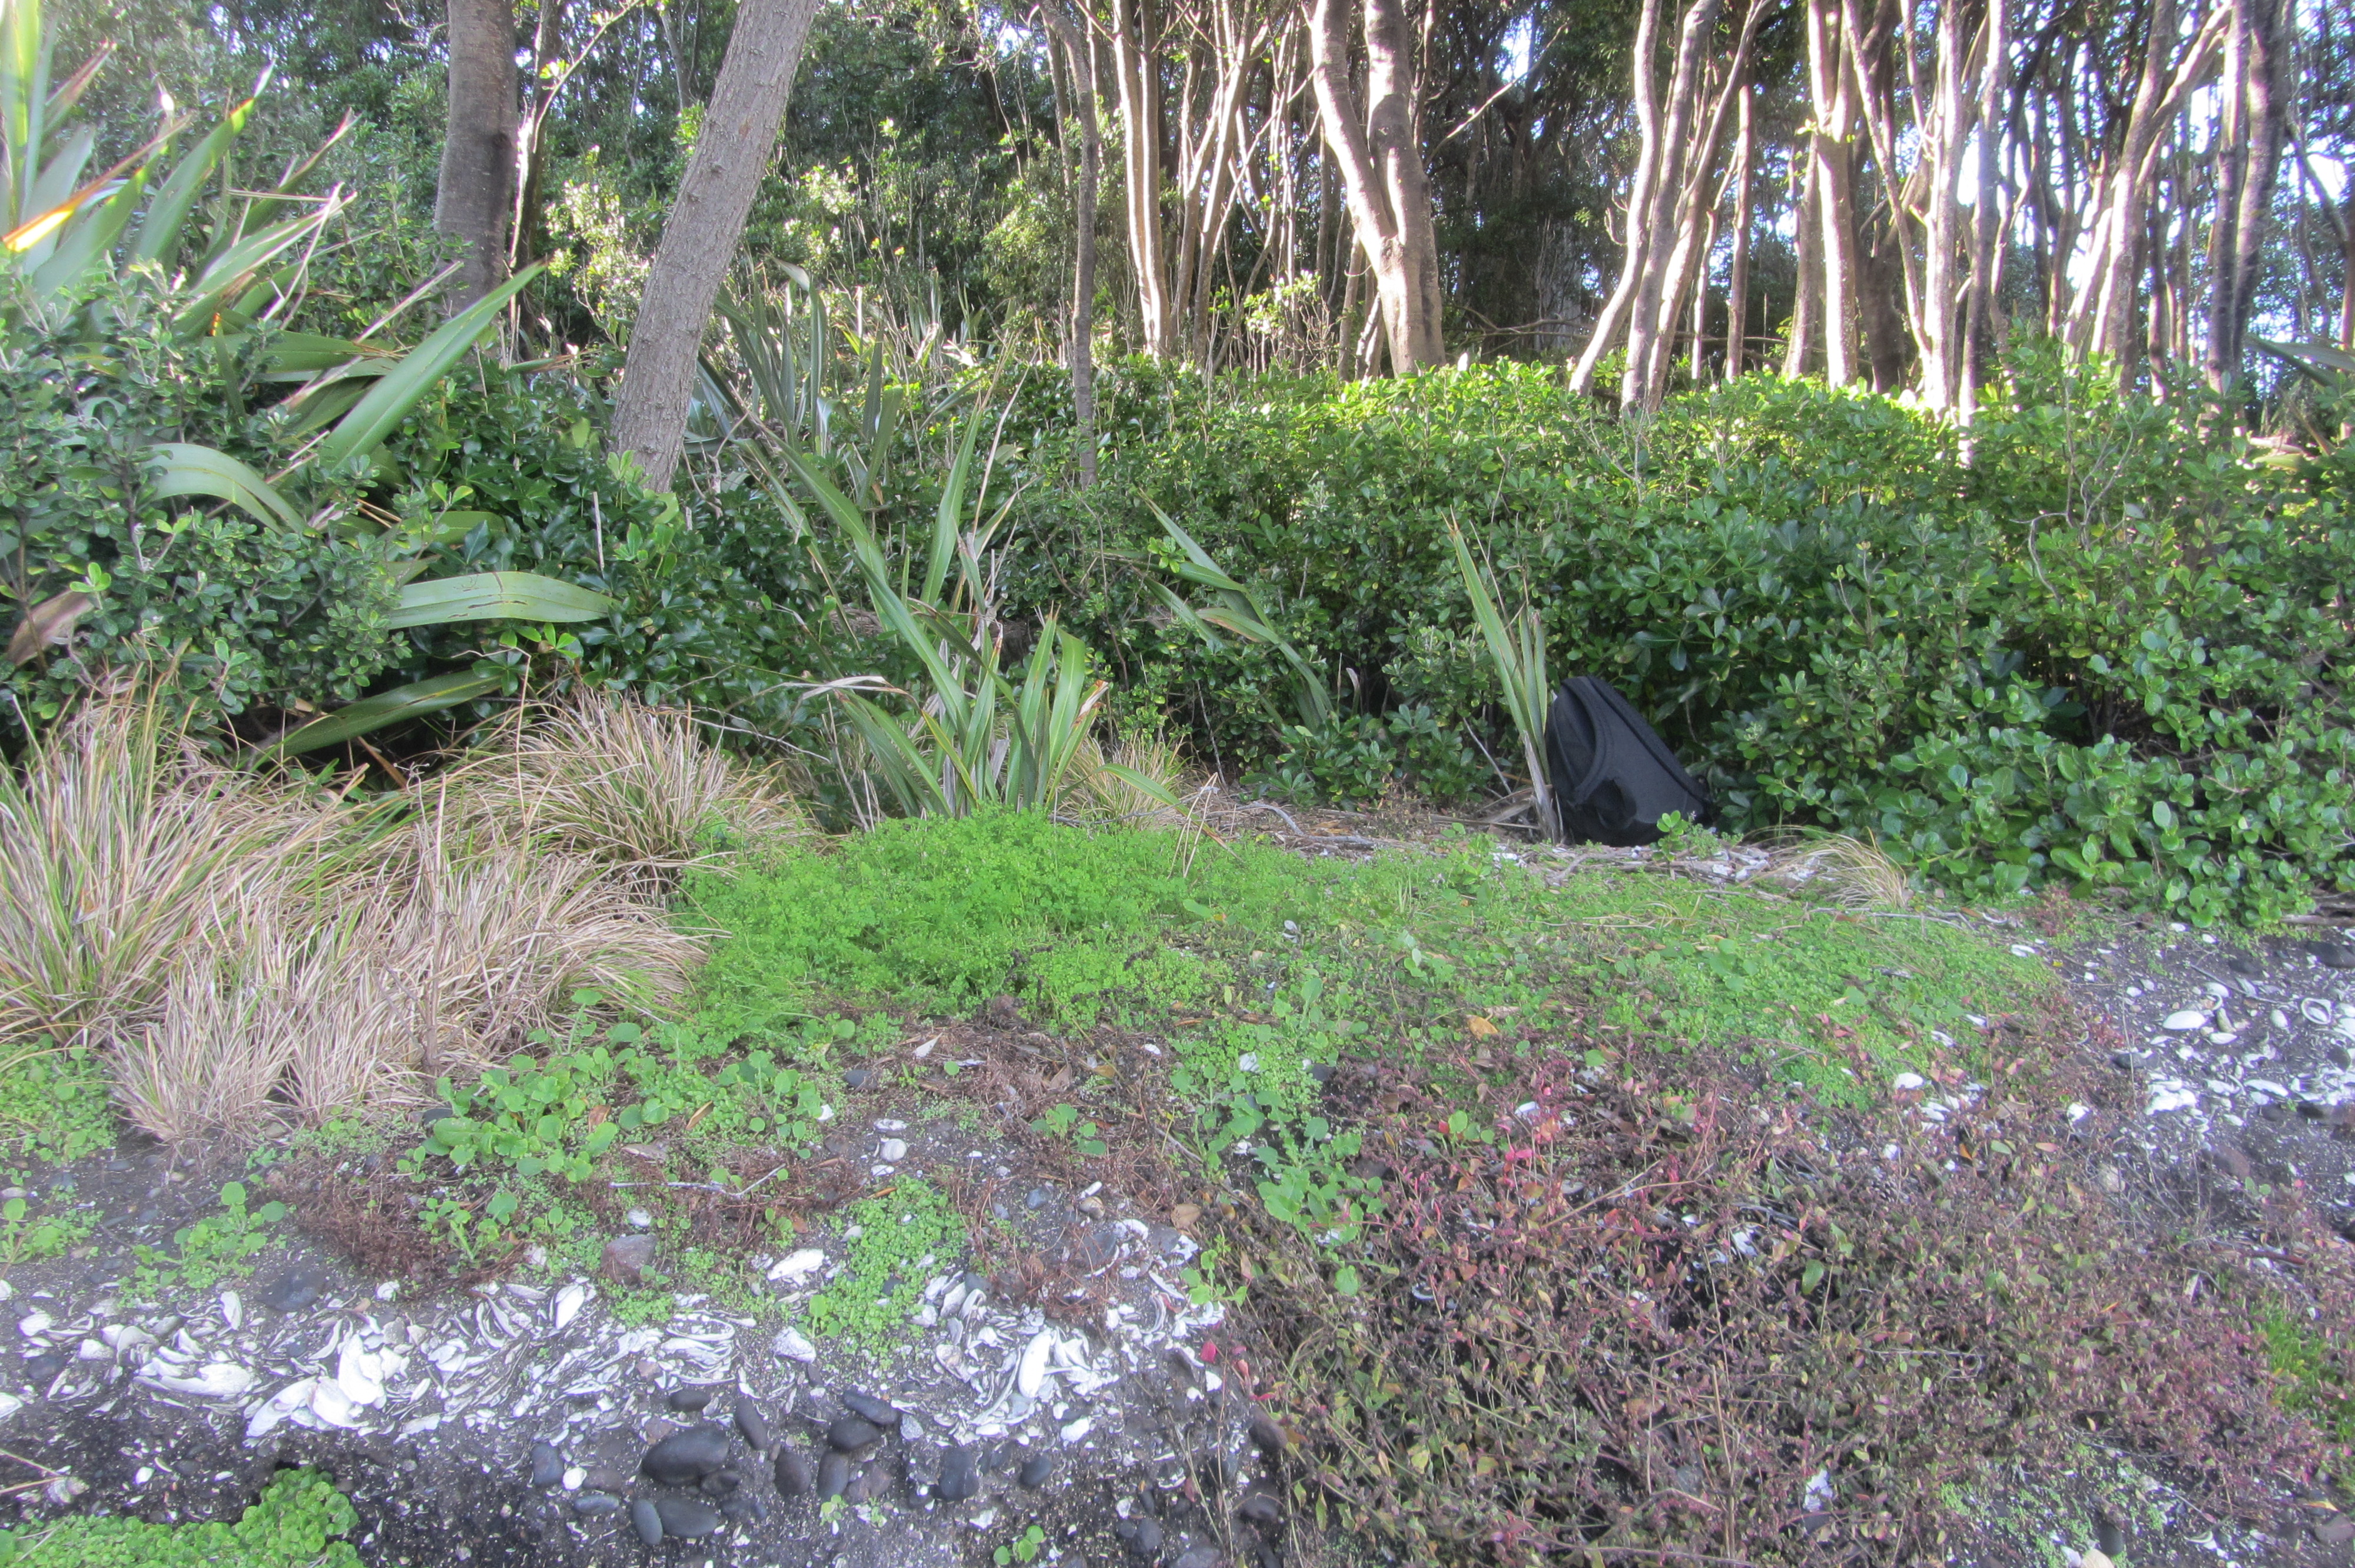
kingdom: Plantae
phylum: Tracheophyta
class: Magnoliopsida
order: Ranunculales
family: Papaveraceae
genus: Fumaria
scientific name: Fumaria muralis
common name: Common ramping-fumitory
